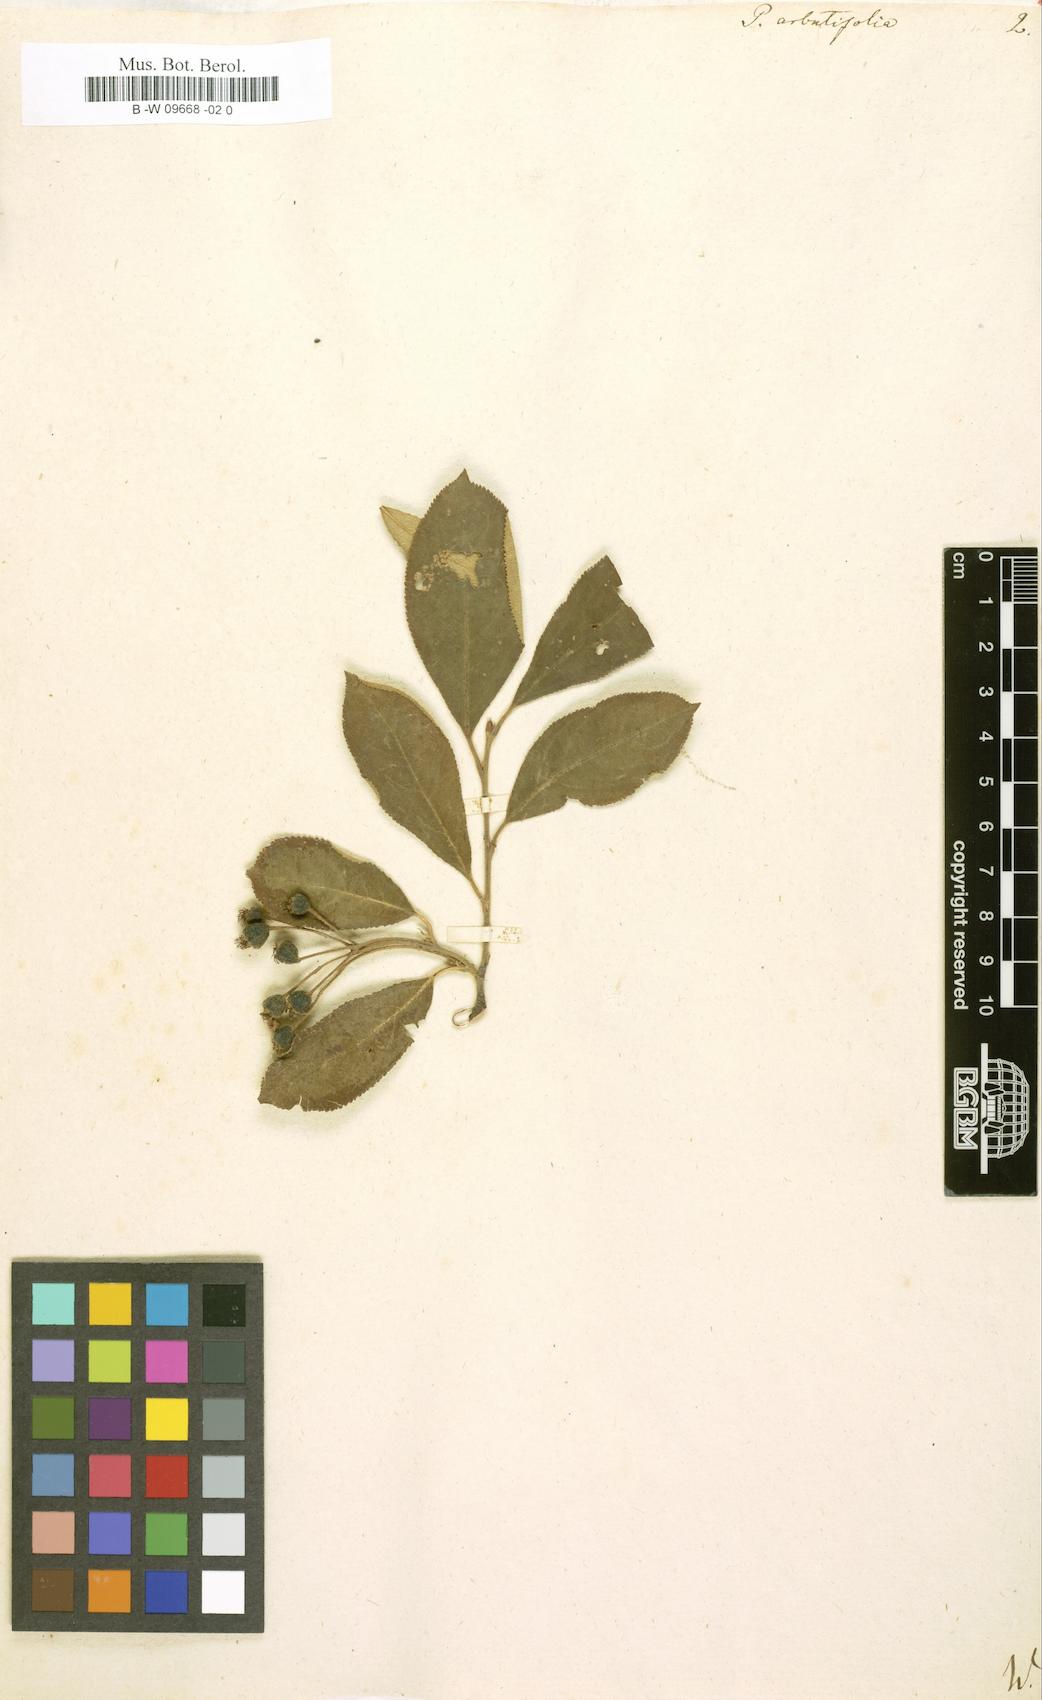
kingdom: Plantae
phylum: Tracheophyta
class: Magnoliopsida
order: Rosales
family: Rosaceae
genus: Aronia
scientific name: Aronia arbutifolia
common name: Red chokeberry
